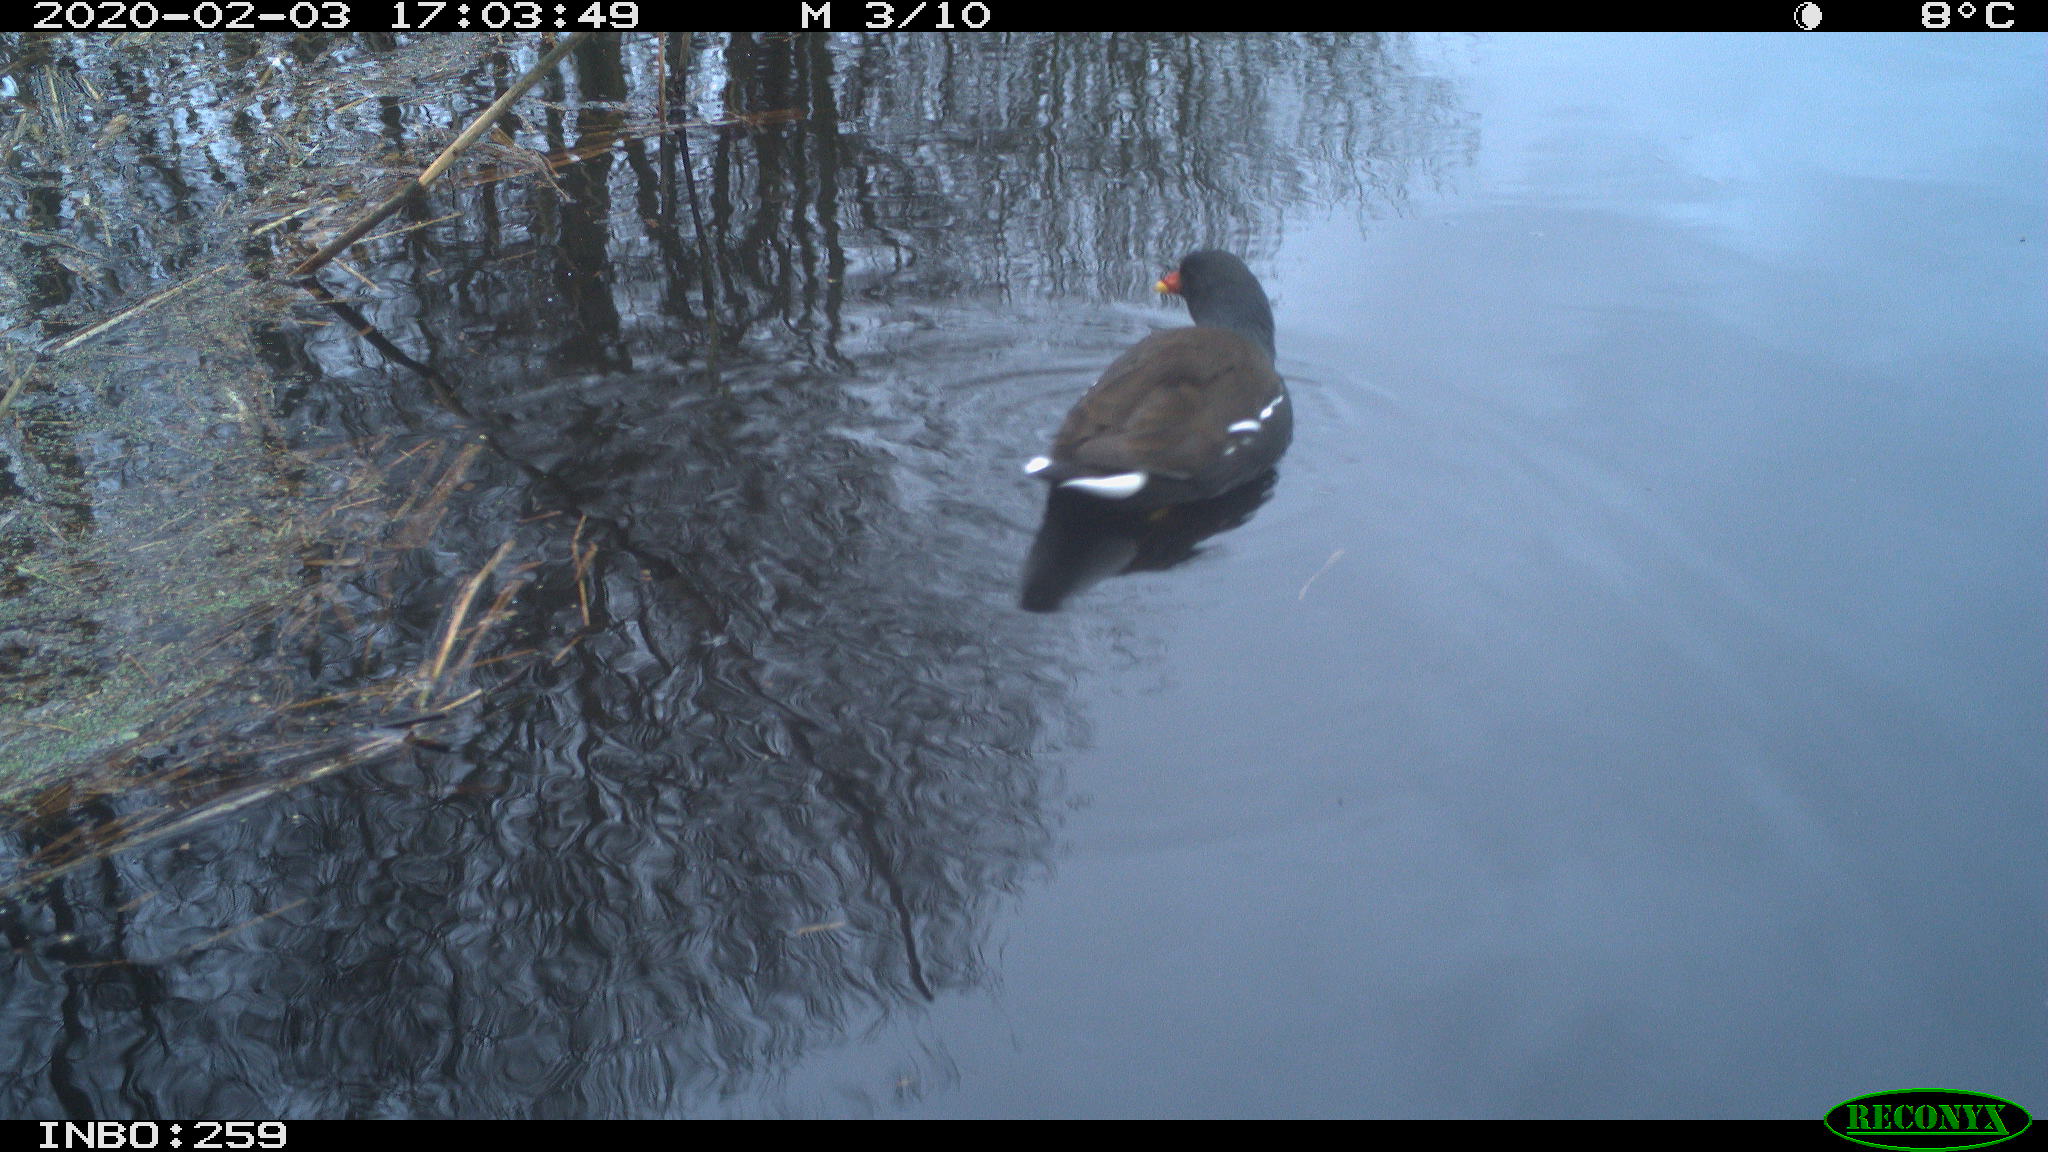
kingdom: Animalia
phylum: Chordata
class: Aves
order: Gruiformes
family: Rallidae
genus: Gallinula
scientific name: Gallinula chloropus
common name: Common moorhen
